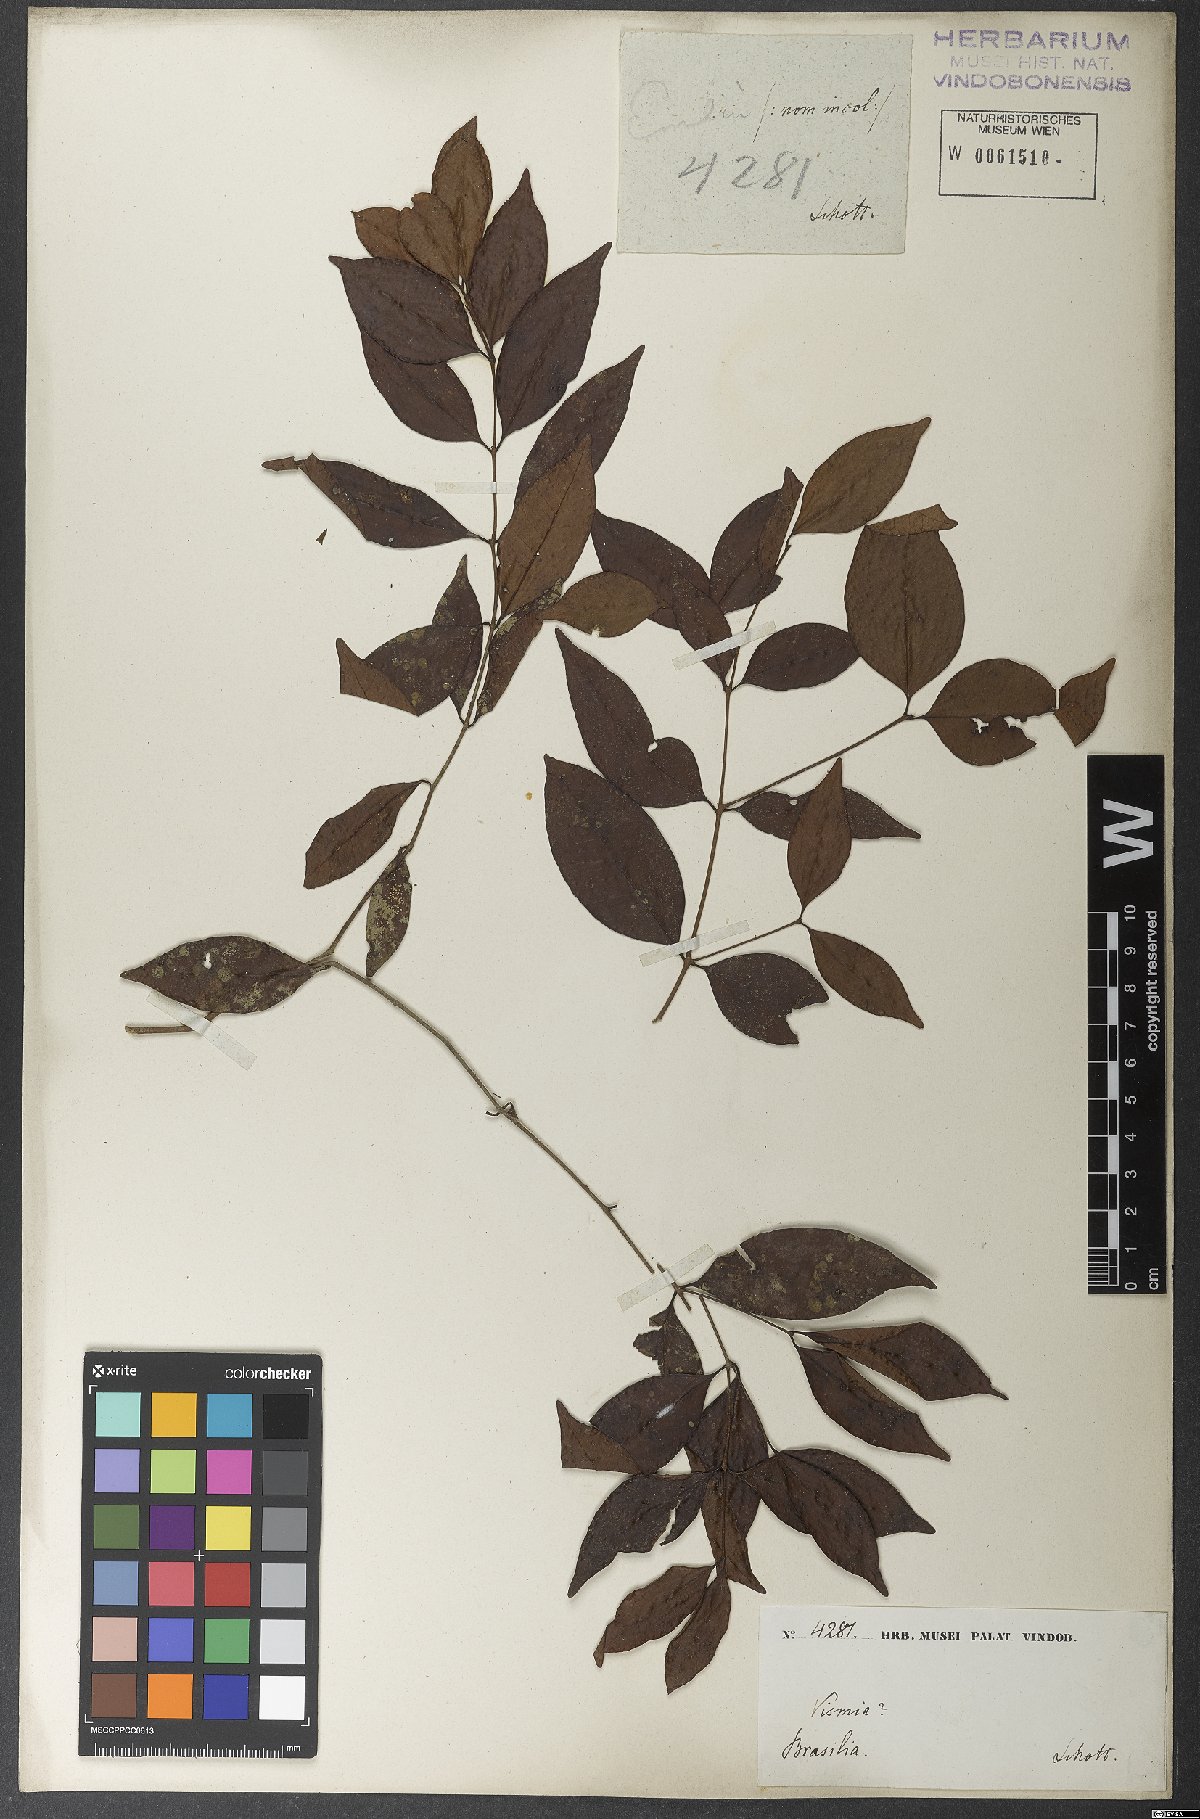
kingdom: Plantae
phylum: Tracheophyta
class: Magnoliopsida
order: Malpighiales
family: Hypericaceae
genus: Vismia
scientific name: Vismia cayennensis
